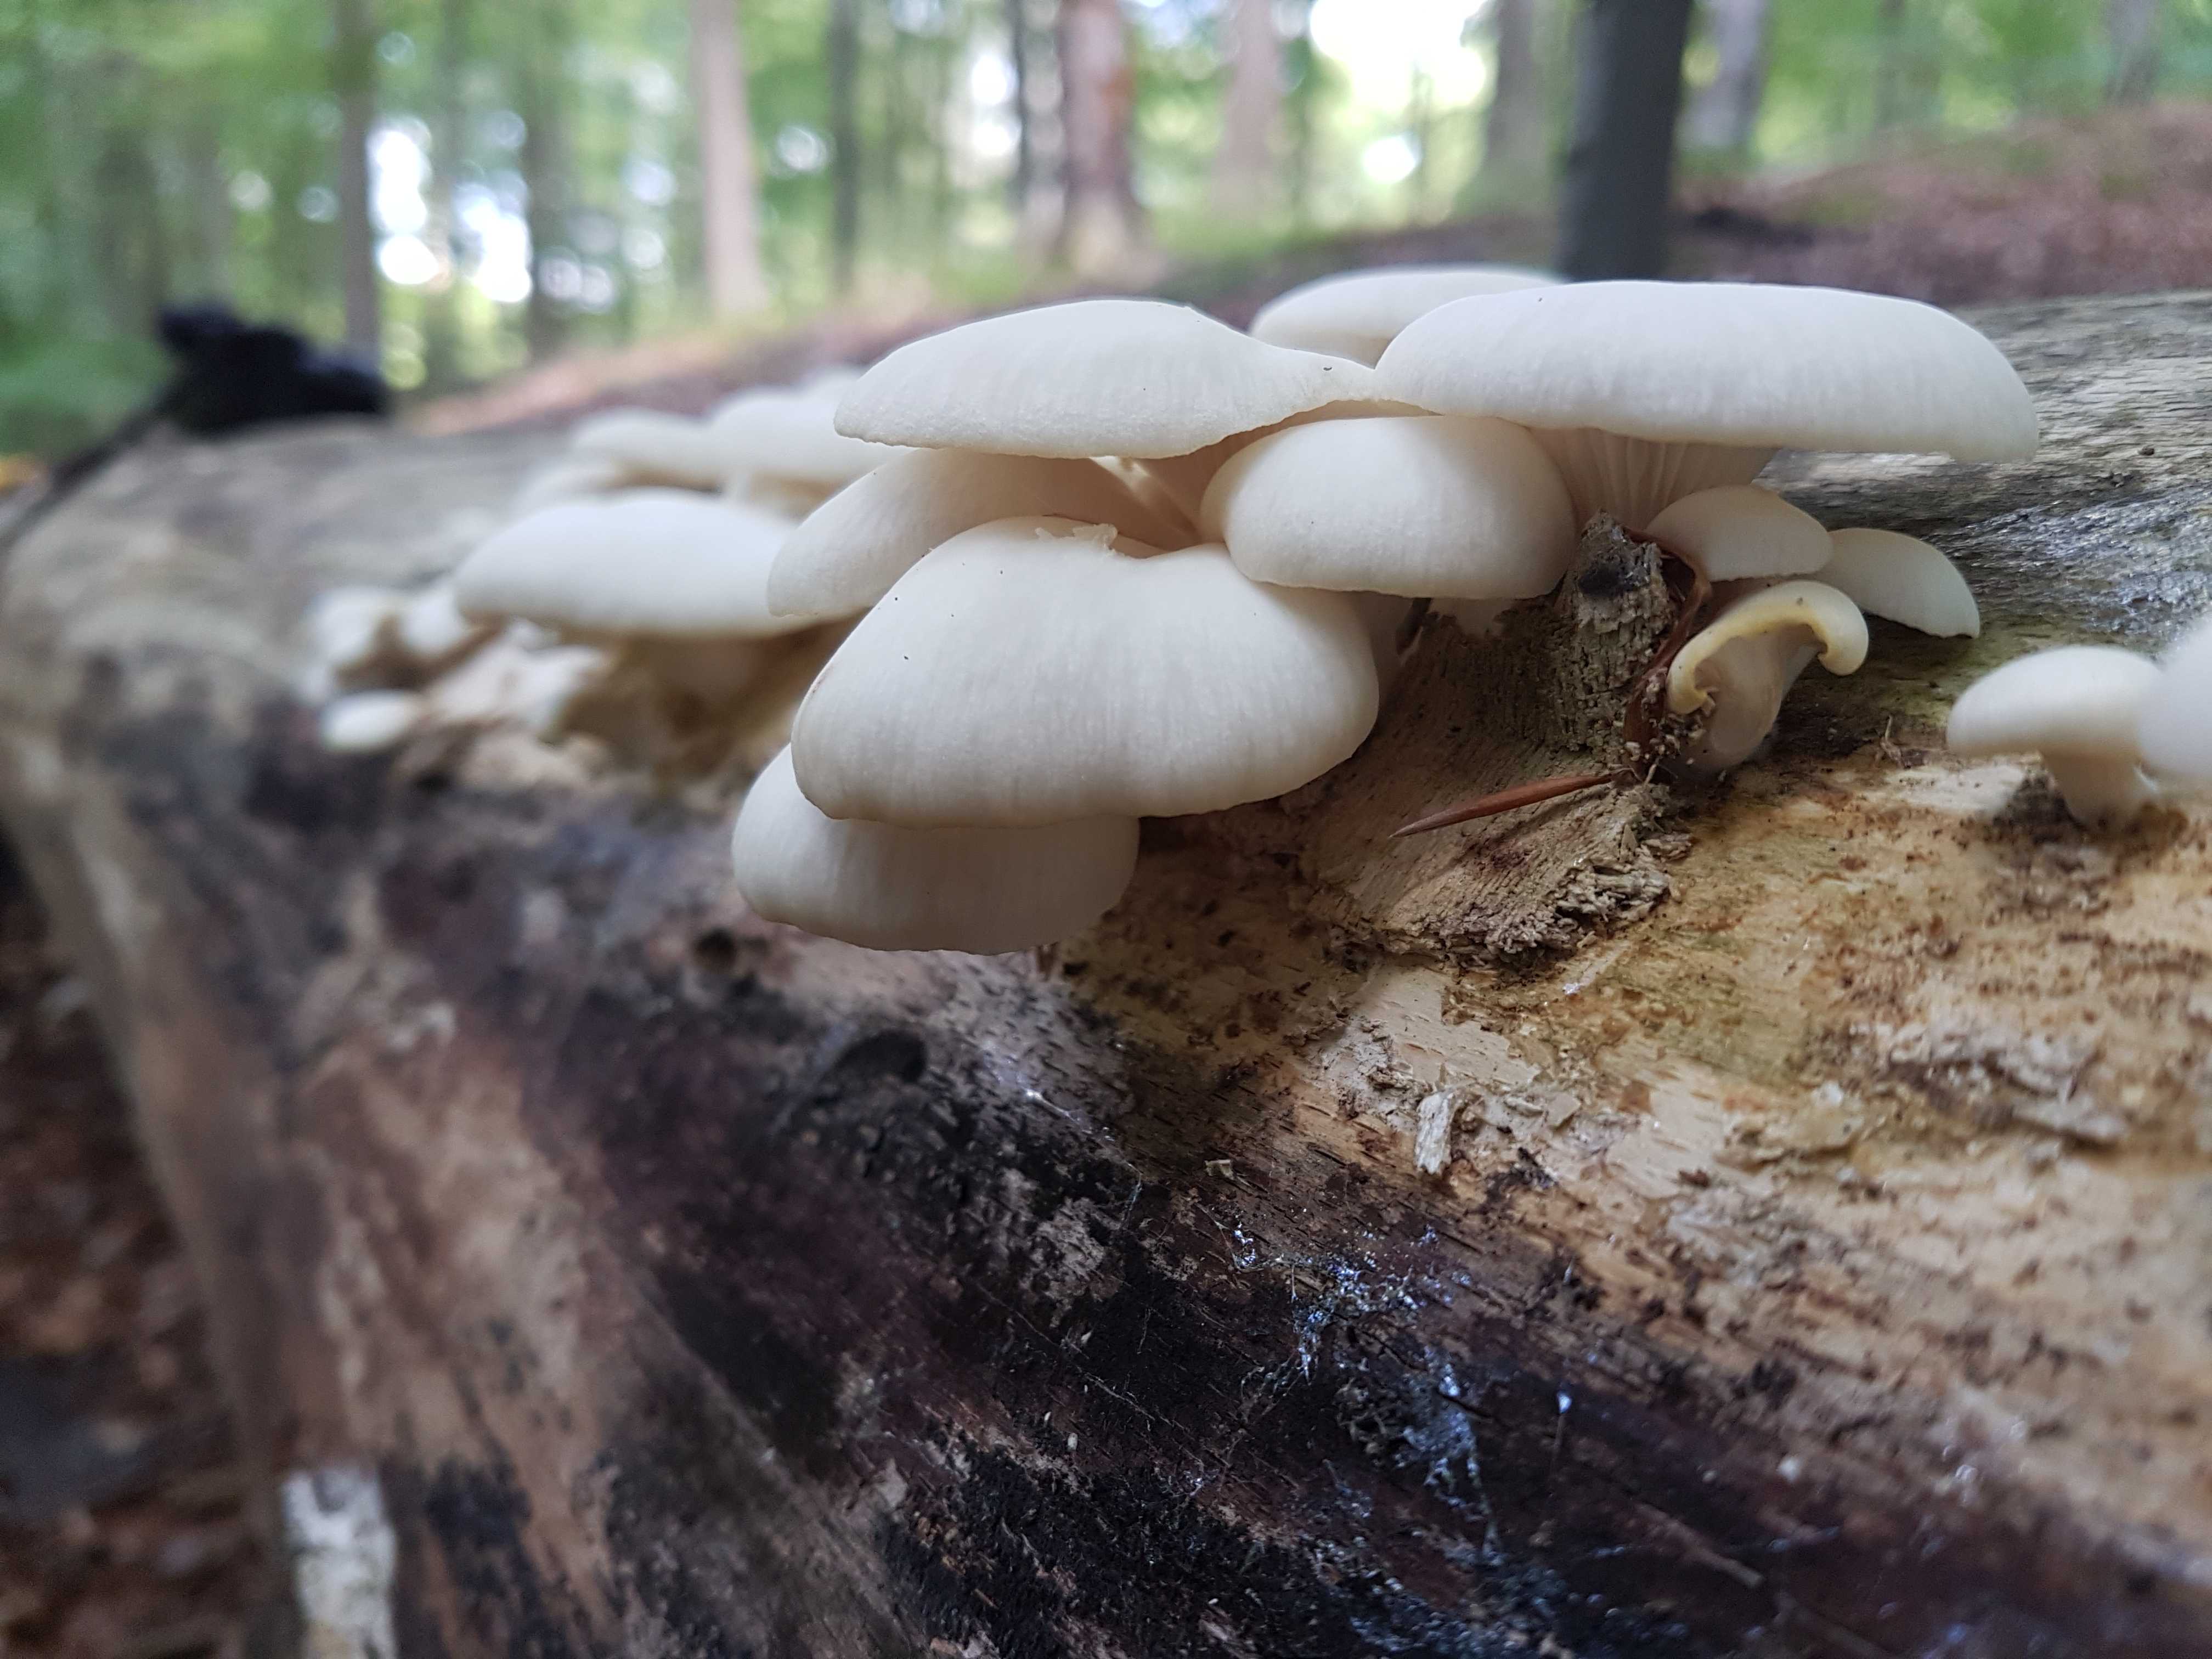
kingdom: Fungi
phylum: Basidiomycota
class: Agaricomycetes
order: Agaricales
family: Pleurotaceae
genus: Pleurotus
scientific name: Pleurotus pulmonarius
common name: sommer-østershat
